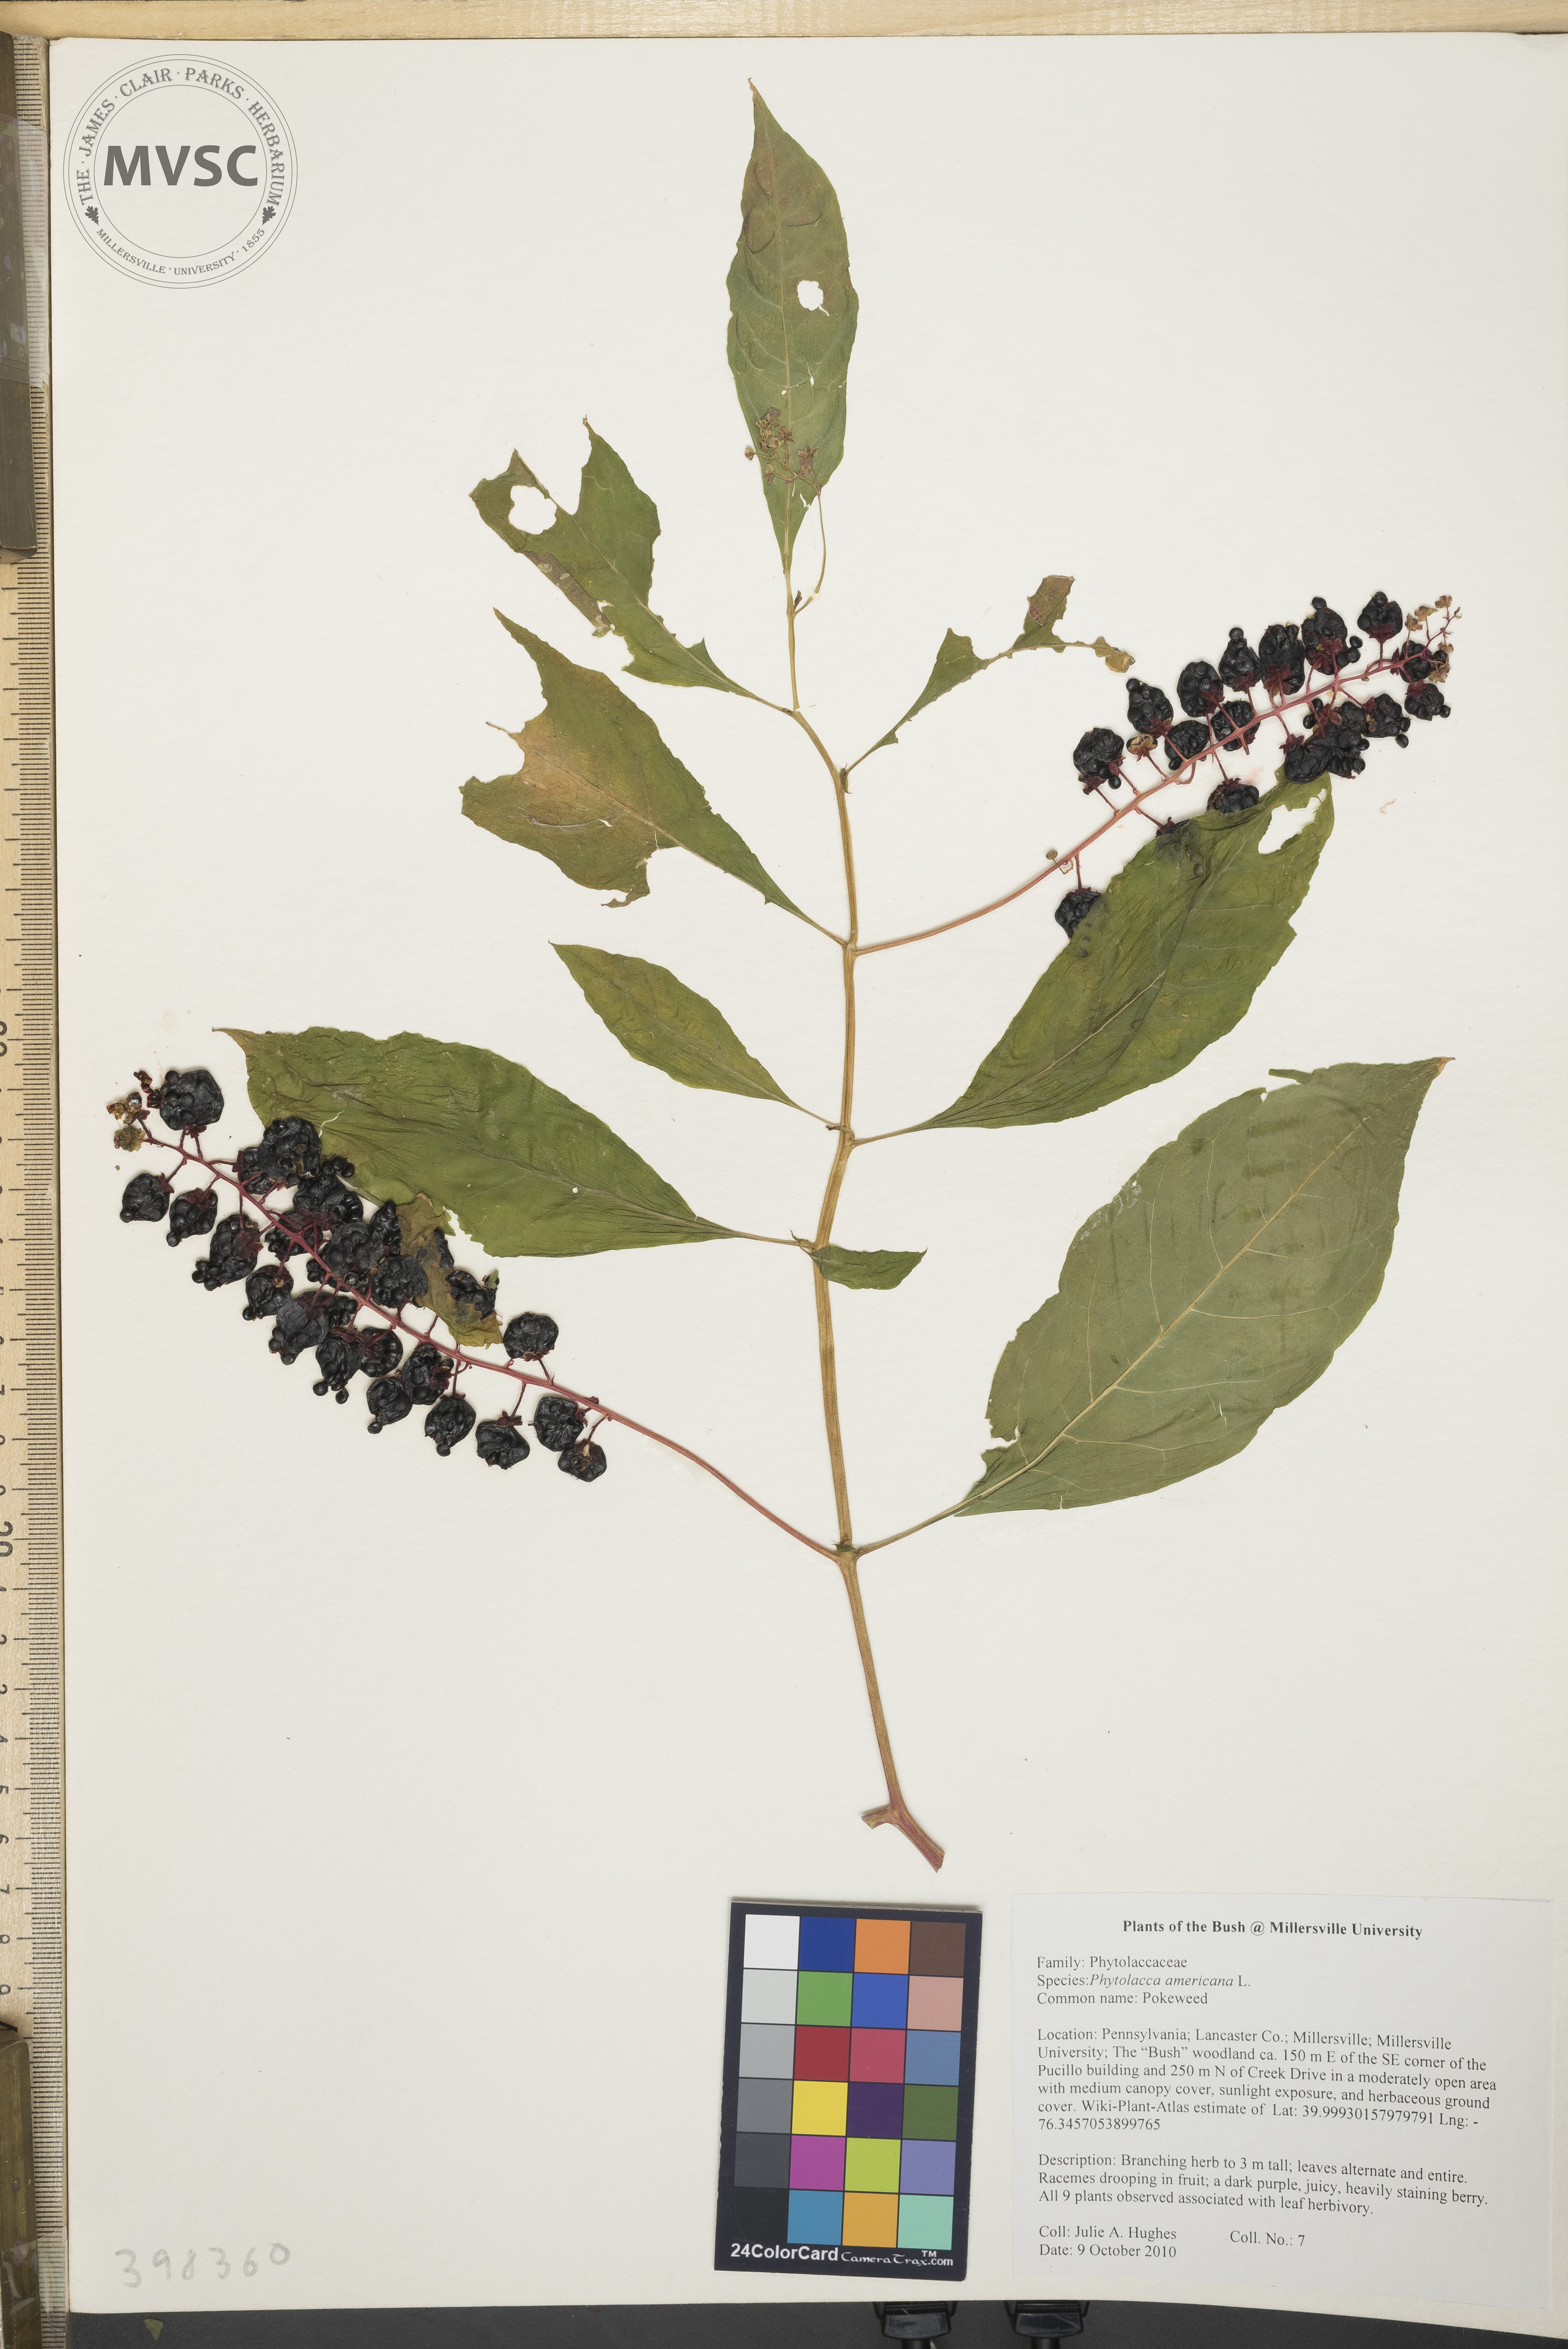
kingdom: Plantae
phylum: Tracheophyta
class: Magnoliopsida
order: Caryophyllales
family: Phytolaccaceae
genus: Phytolacca
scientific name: Phytolacca americana
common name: Pokeweed
